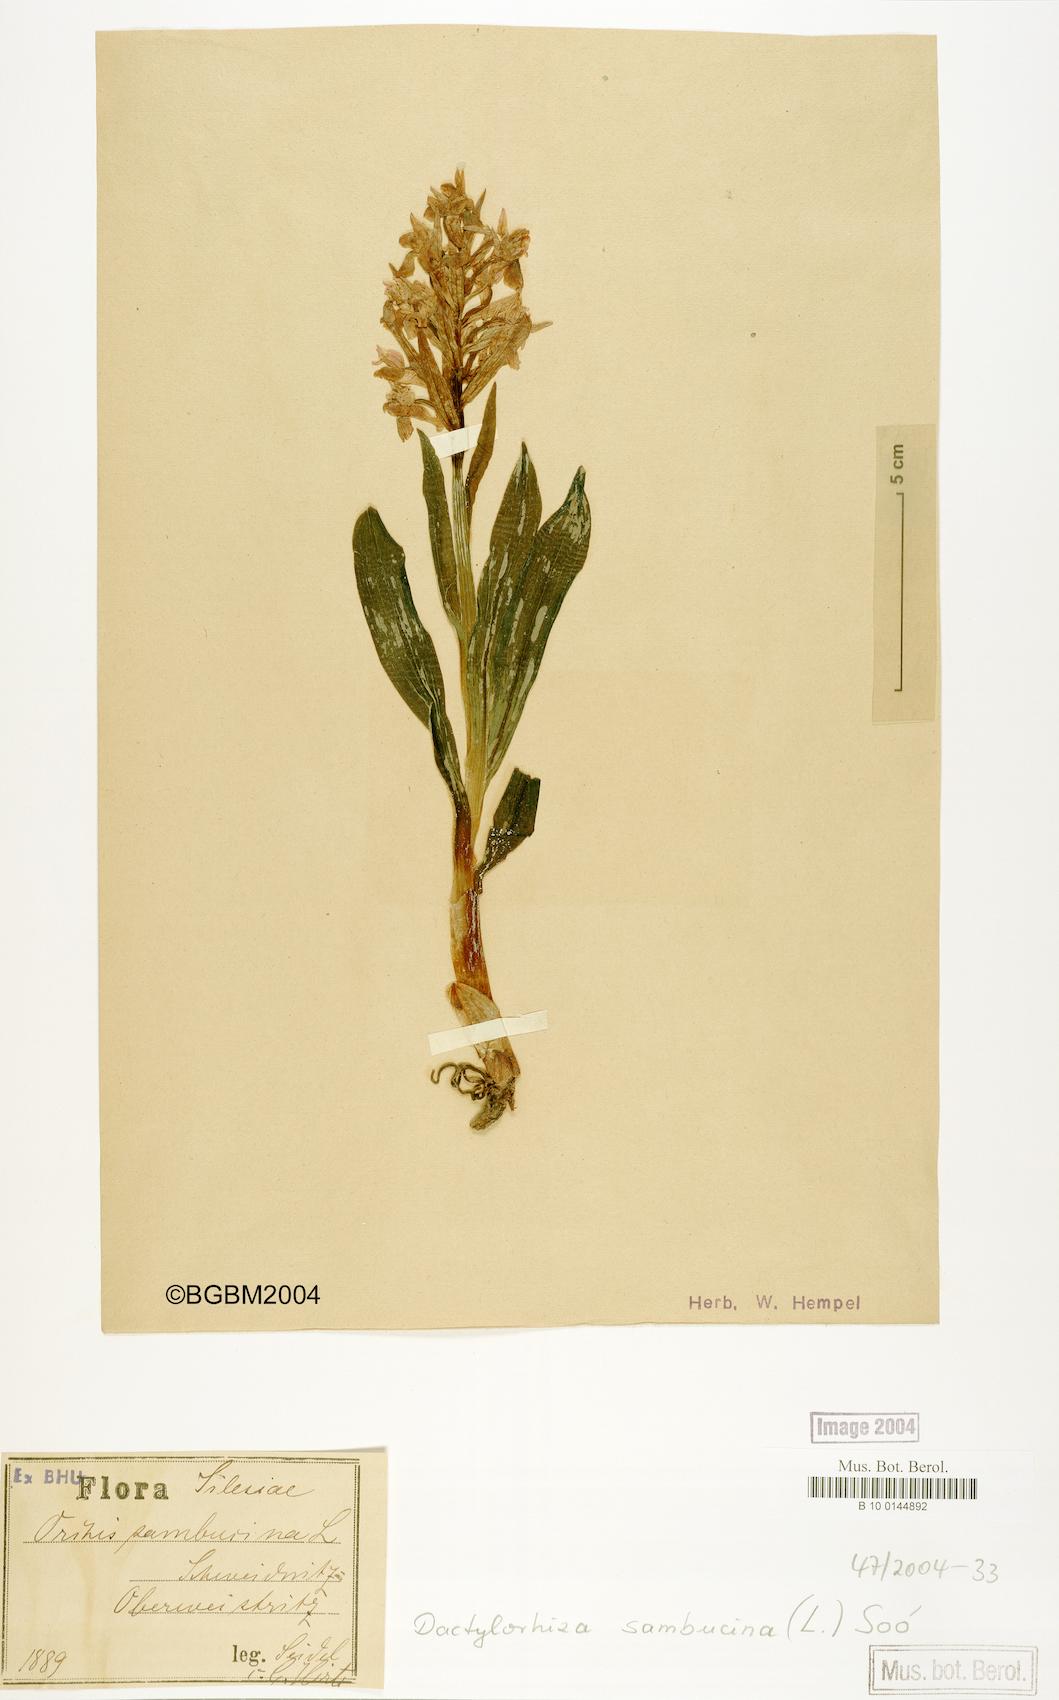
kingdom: Plantae
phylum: Tracheophyta
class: Liliopsida
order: Asparagales
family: Orchidaceae
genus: Dactylorhiza
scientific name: Dactylorhiza sambucina
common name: Elder-flowered orchid
